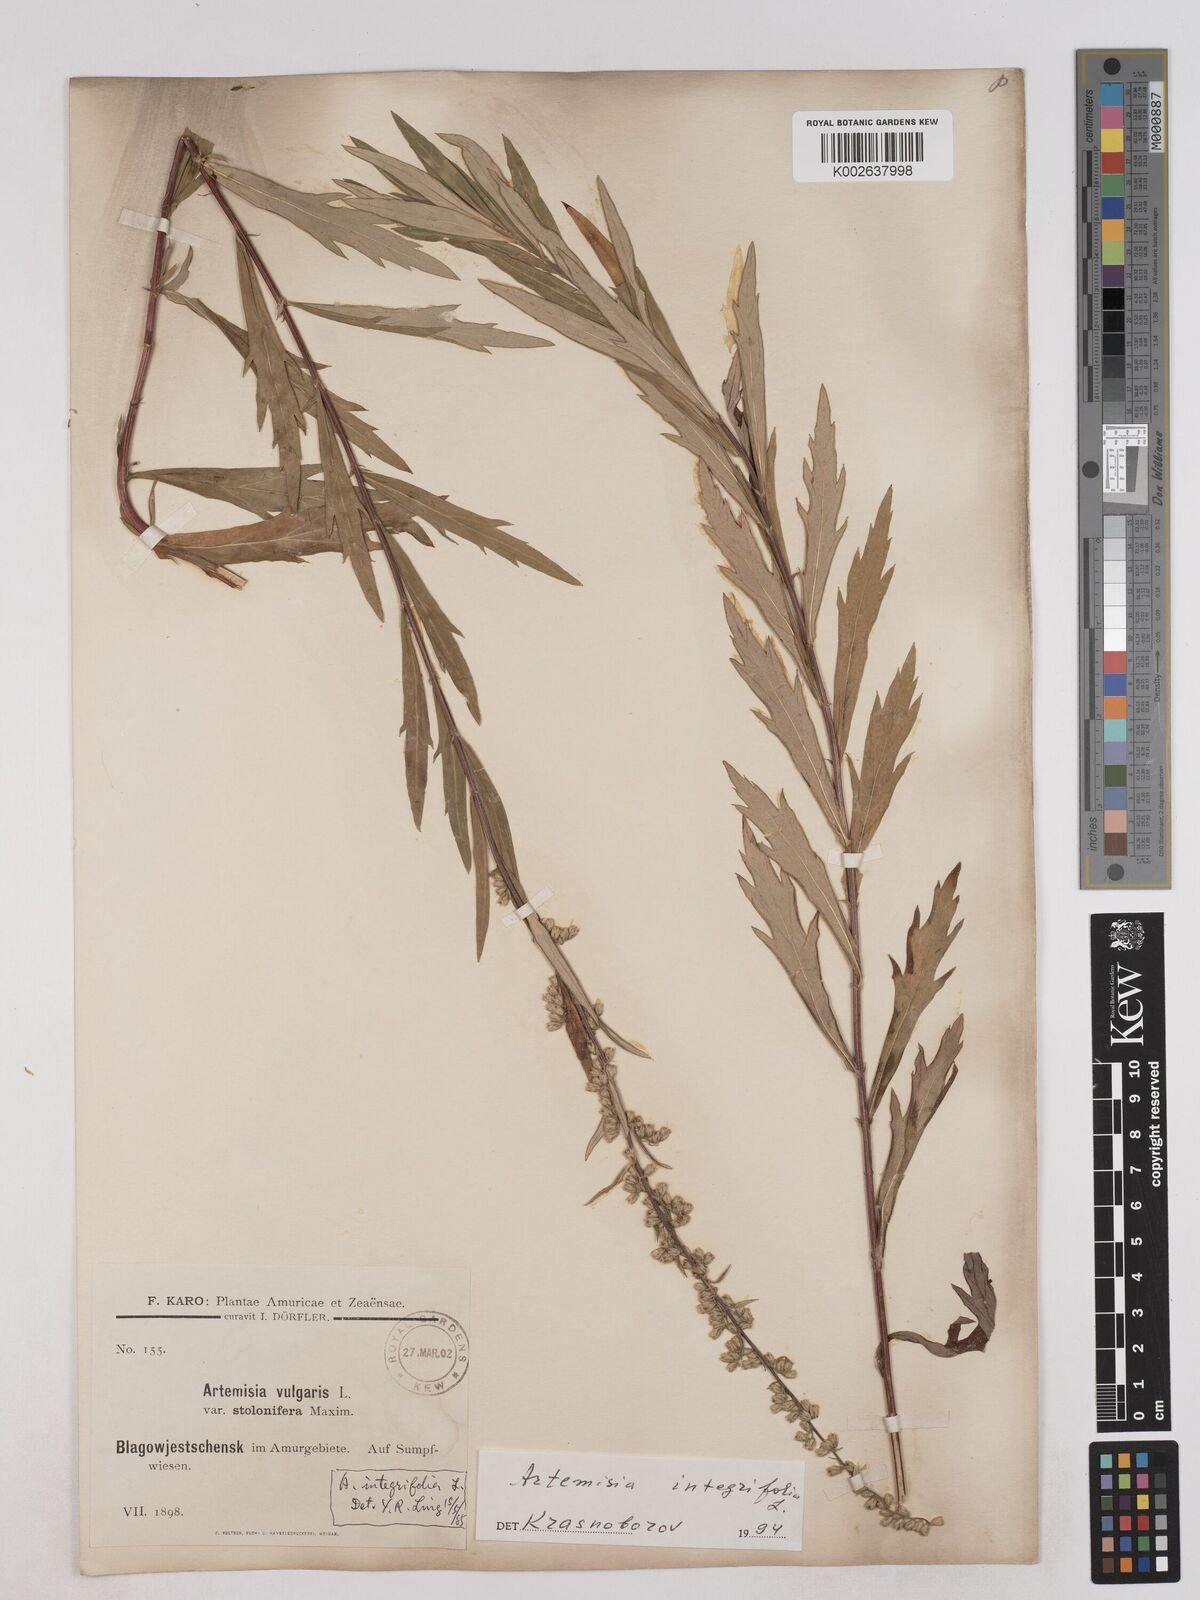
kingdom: Plantae
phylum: Tracheophyta
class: Magnoliopsida
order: Asterales
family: Asteraceae
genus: Artemisia
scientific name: Artemisia integrifolia
